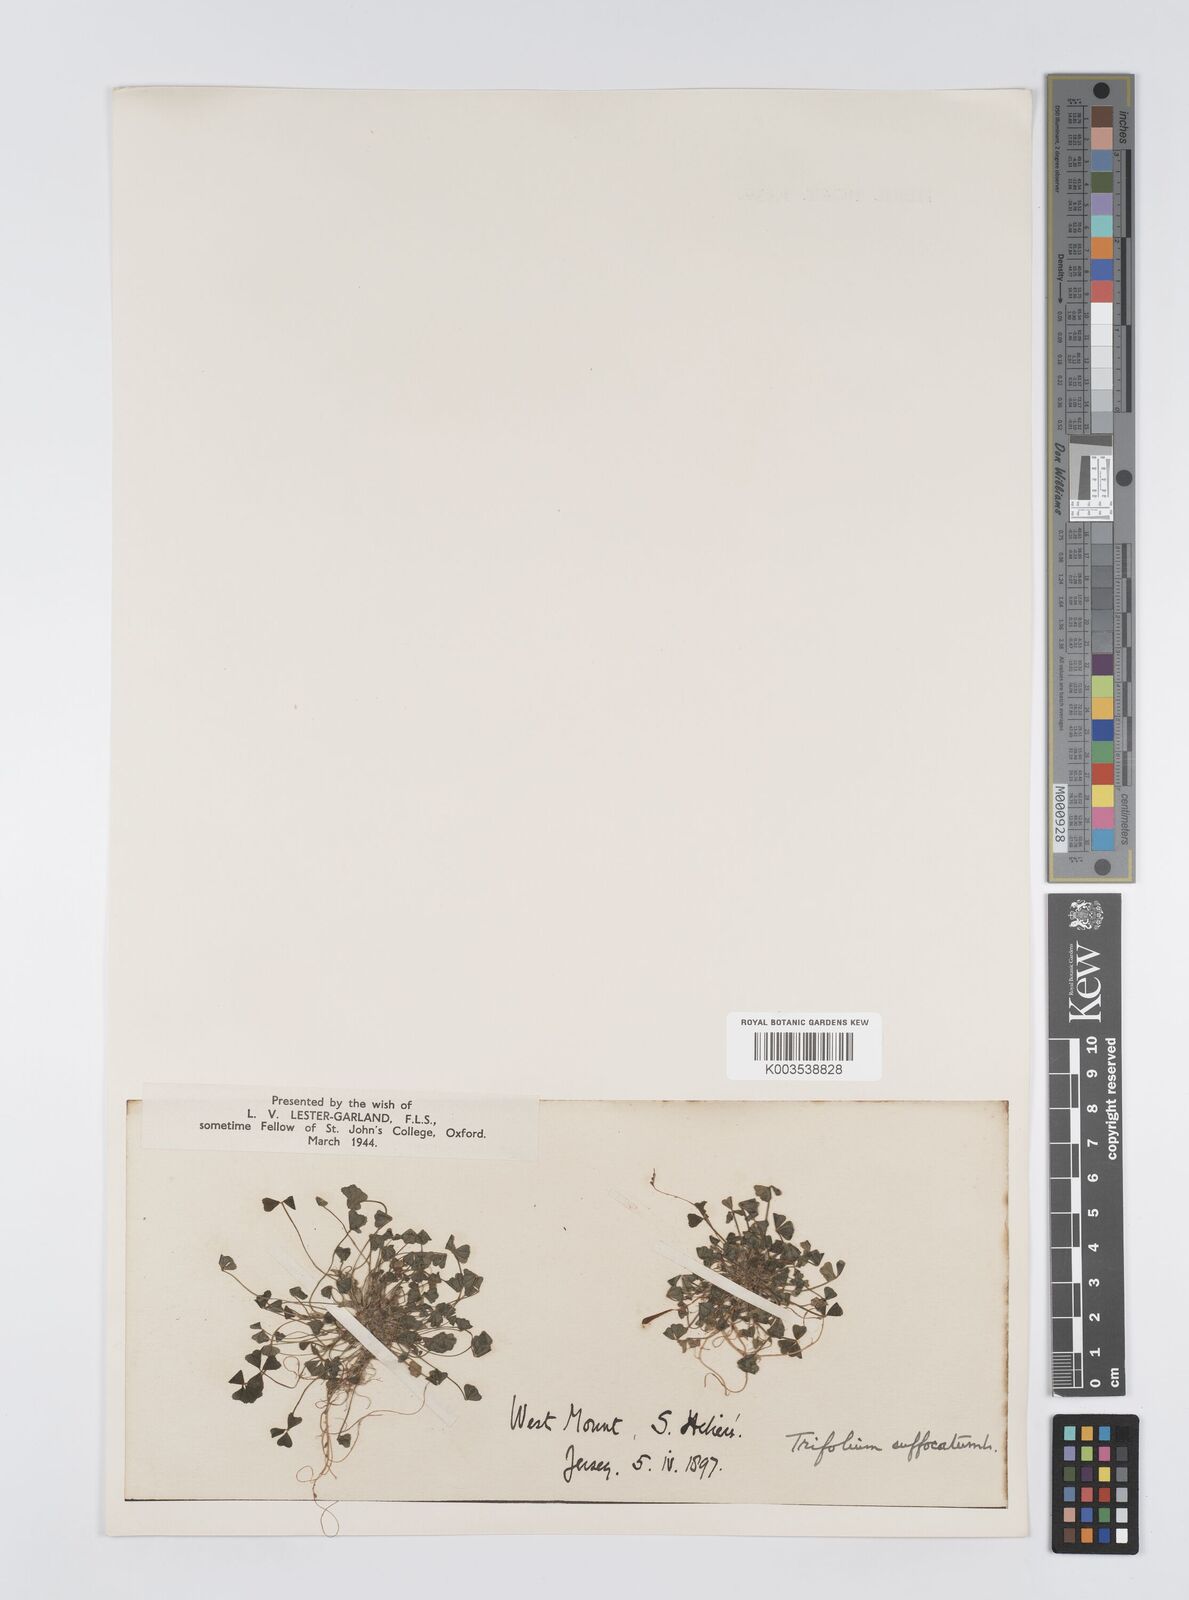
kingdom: Plantae
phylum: Tracheophyta
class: Magnoliopsida
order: Fabales
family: Fabaceae
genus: Trifolium
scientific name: Trifolium suffocatum
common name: Suffocated clover
